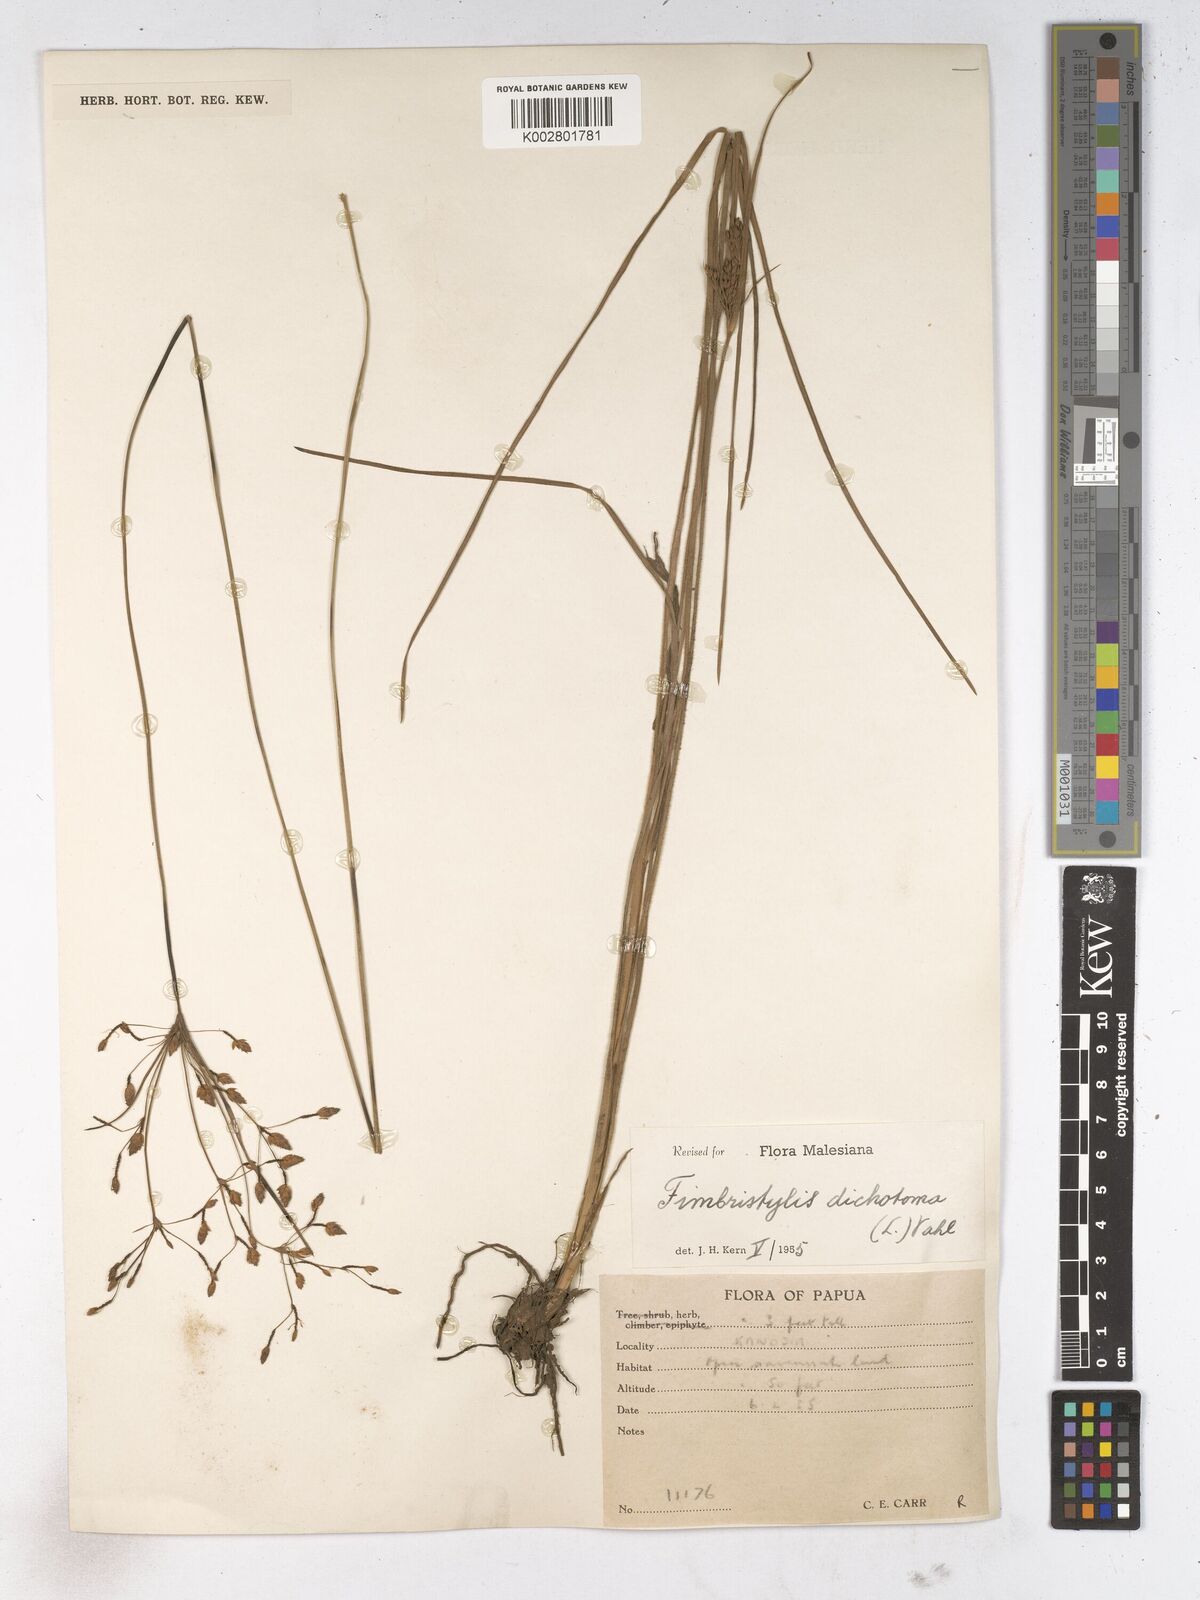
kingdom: Plantae
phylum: Tracheophyta
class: Liliopsida
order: Poales
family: Cyperaceae
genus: Fimbristylis
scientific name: Fimbristylis dichotoma
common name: Forked fimbry
